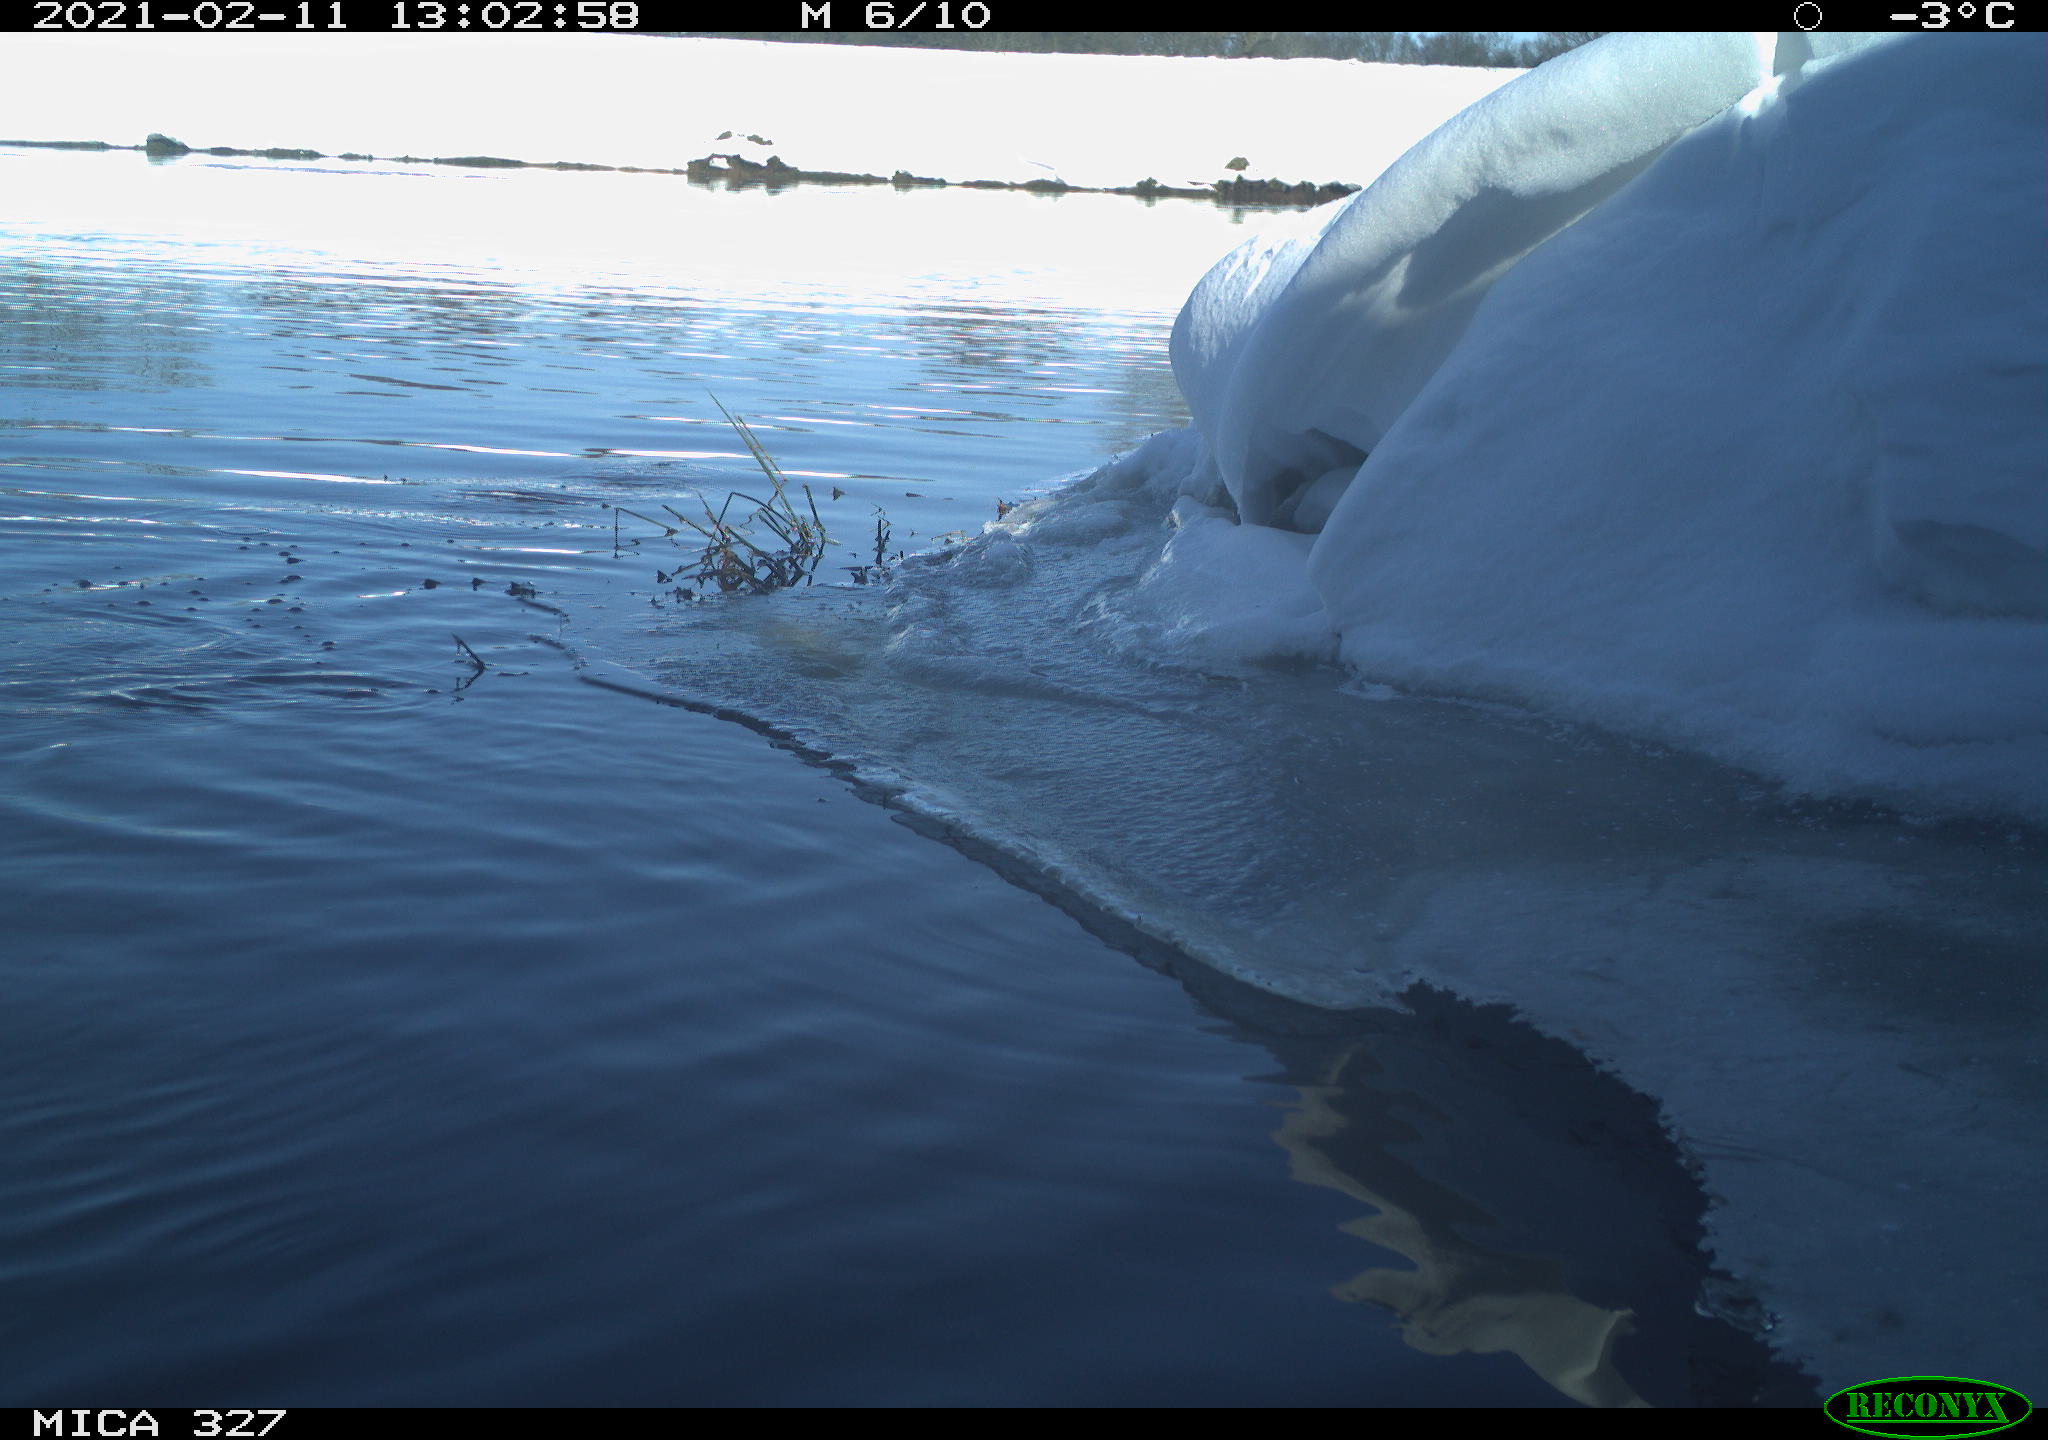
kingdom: Animalia
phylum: Chordata
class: Aves
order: Suliformes
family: Phalacrocoracidae
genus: Phalacrocorax
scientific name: Phalacrocorax carbo
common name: Great cormorant
